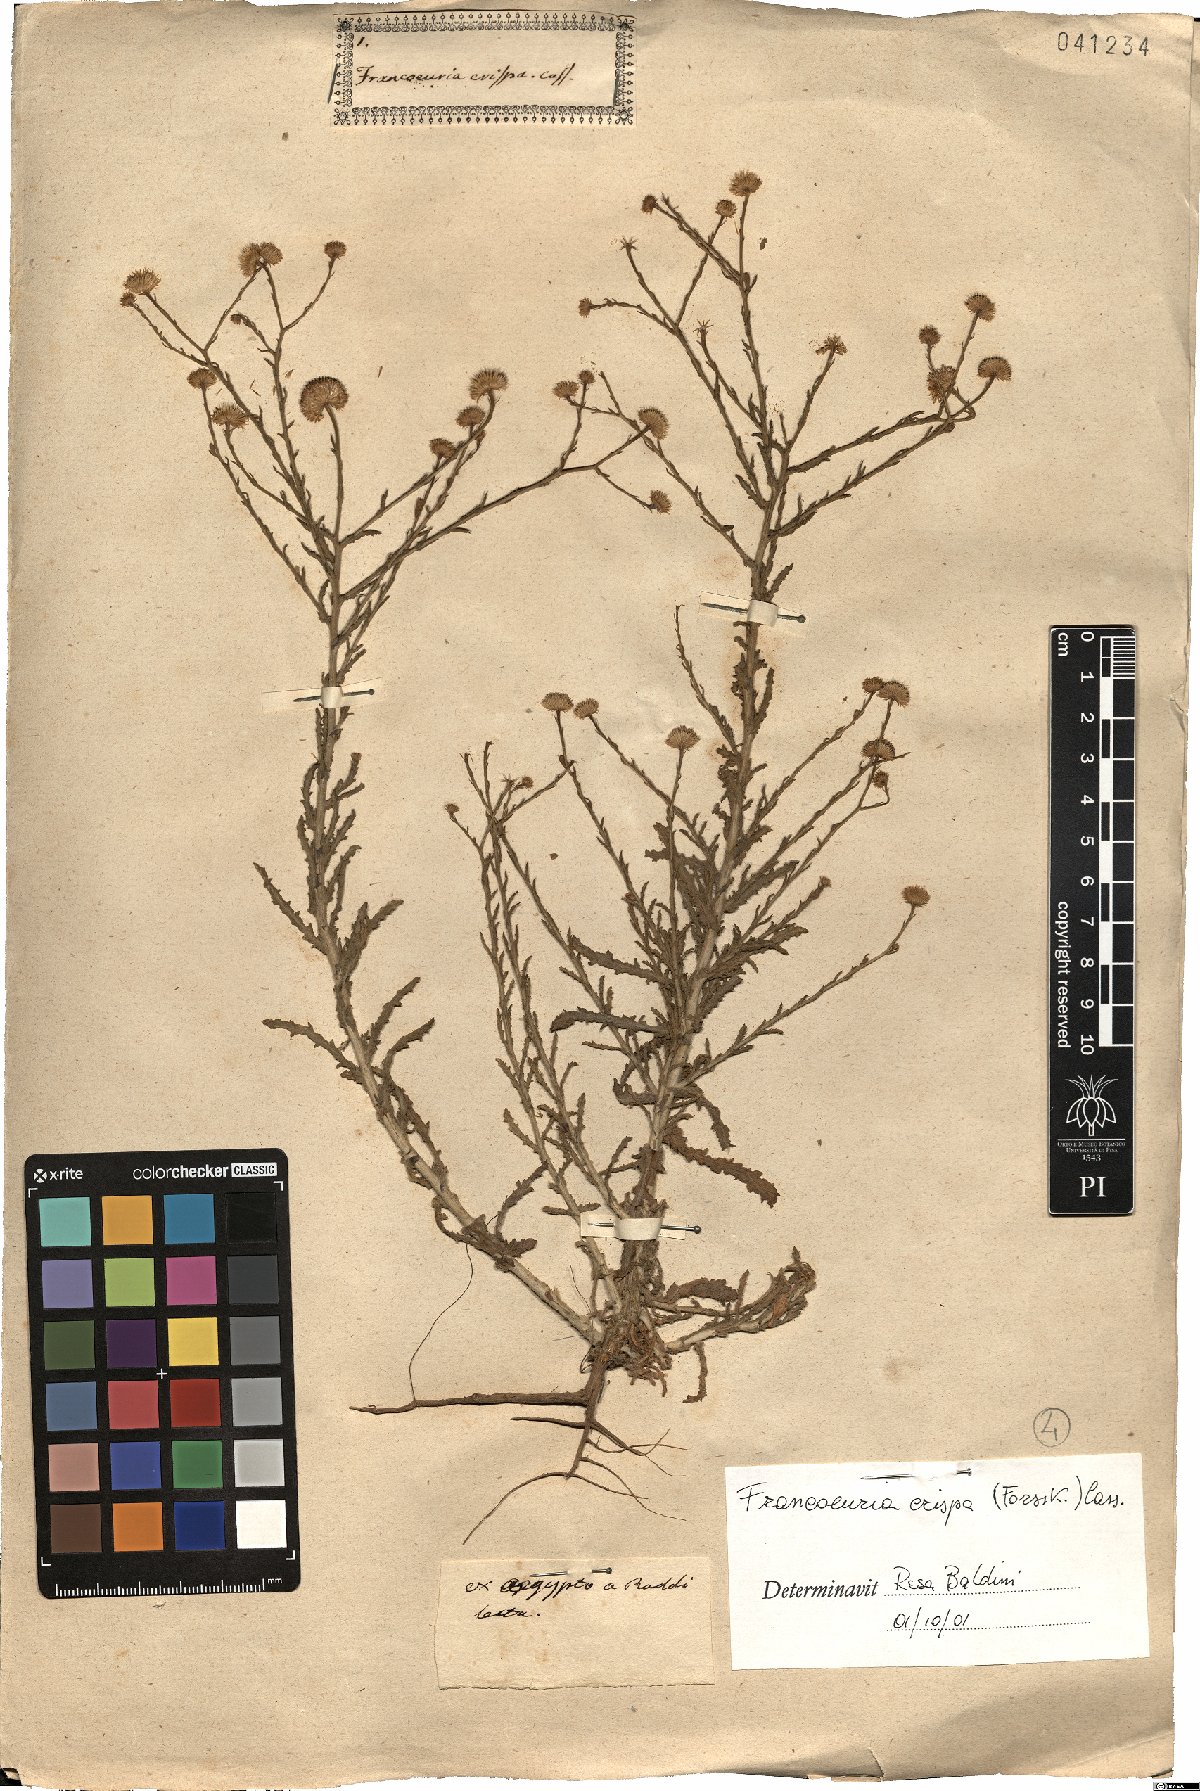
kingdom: Plantae
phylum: Tracheophyta
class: Magnoliopsida
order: Asterales
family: Asteraceae
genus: Pulicaria
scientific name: Pulicaria undulata
